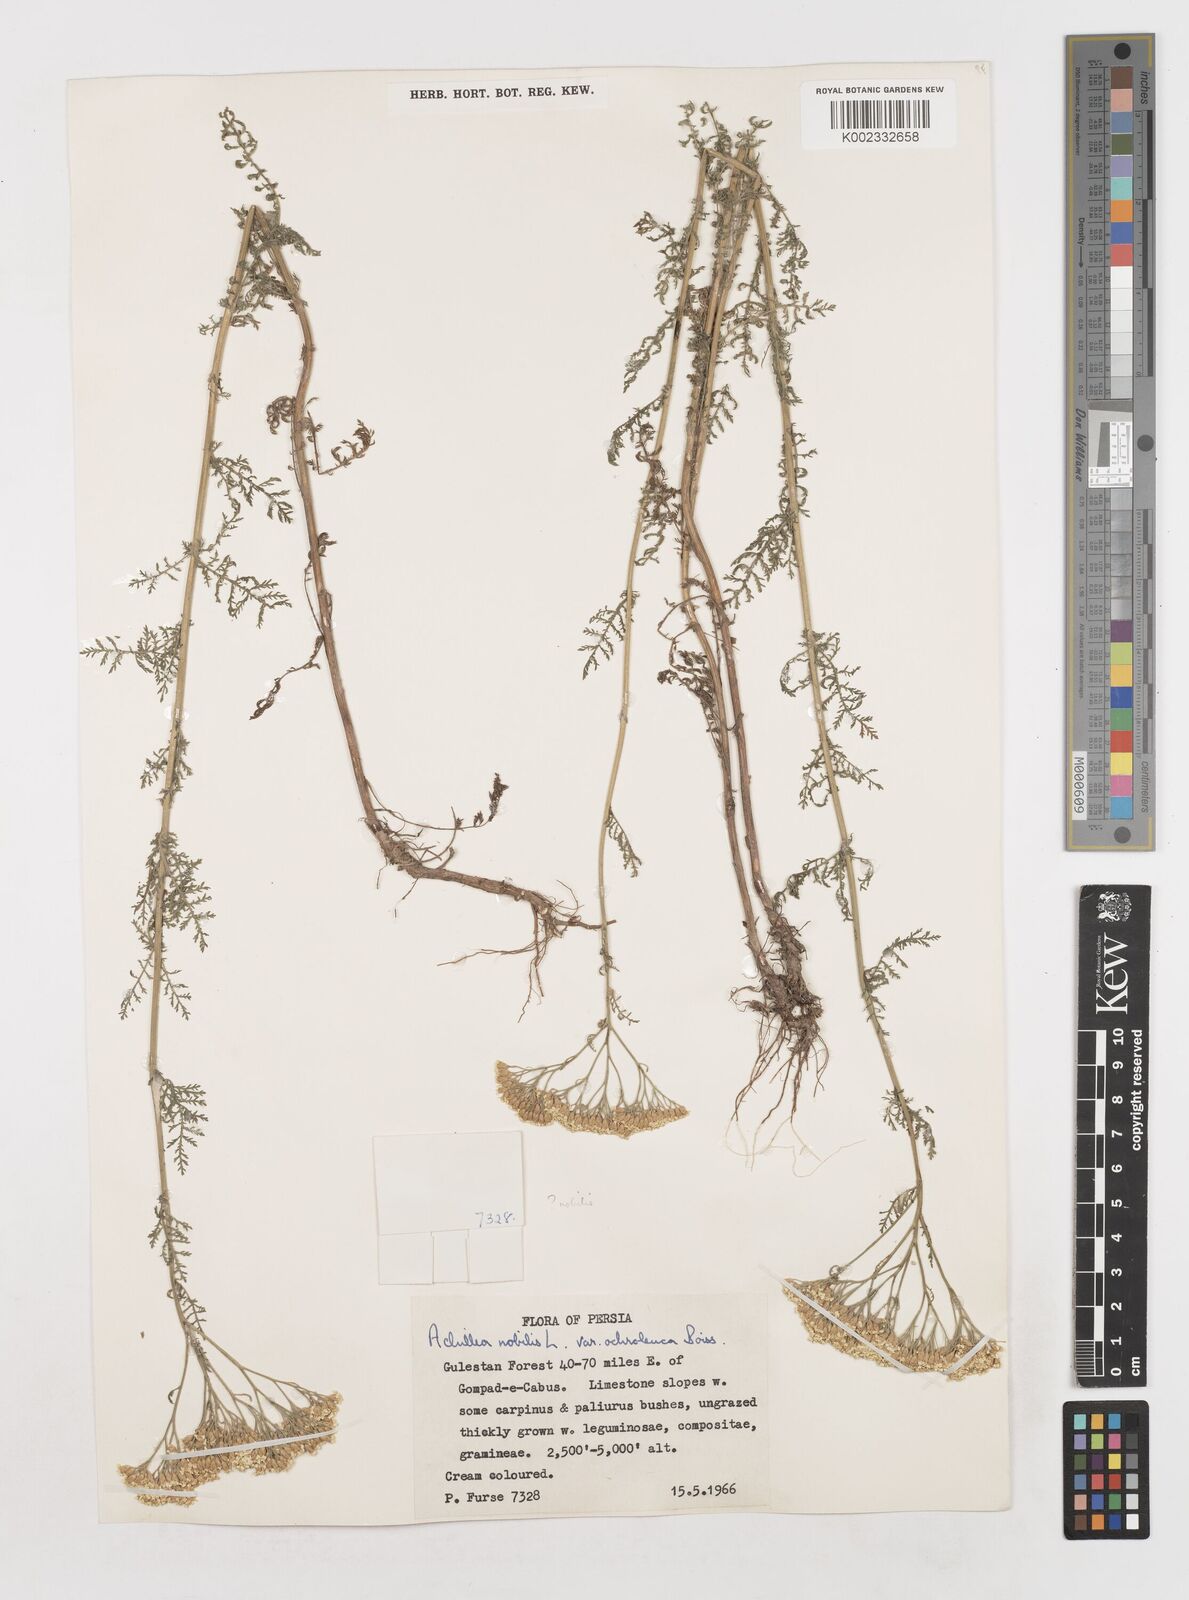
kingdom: Plantae
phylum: Tracheophyta
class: Magnoliopsida
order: Asterales
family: Asteraceae
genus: Achillea
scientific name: Achillea nobilis
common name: Noble yarrow
